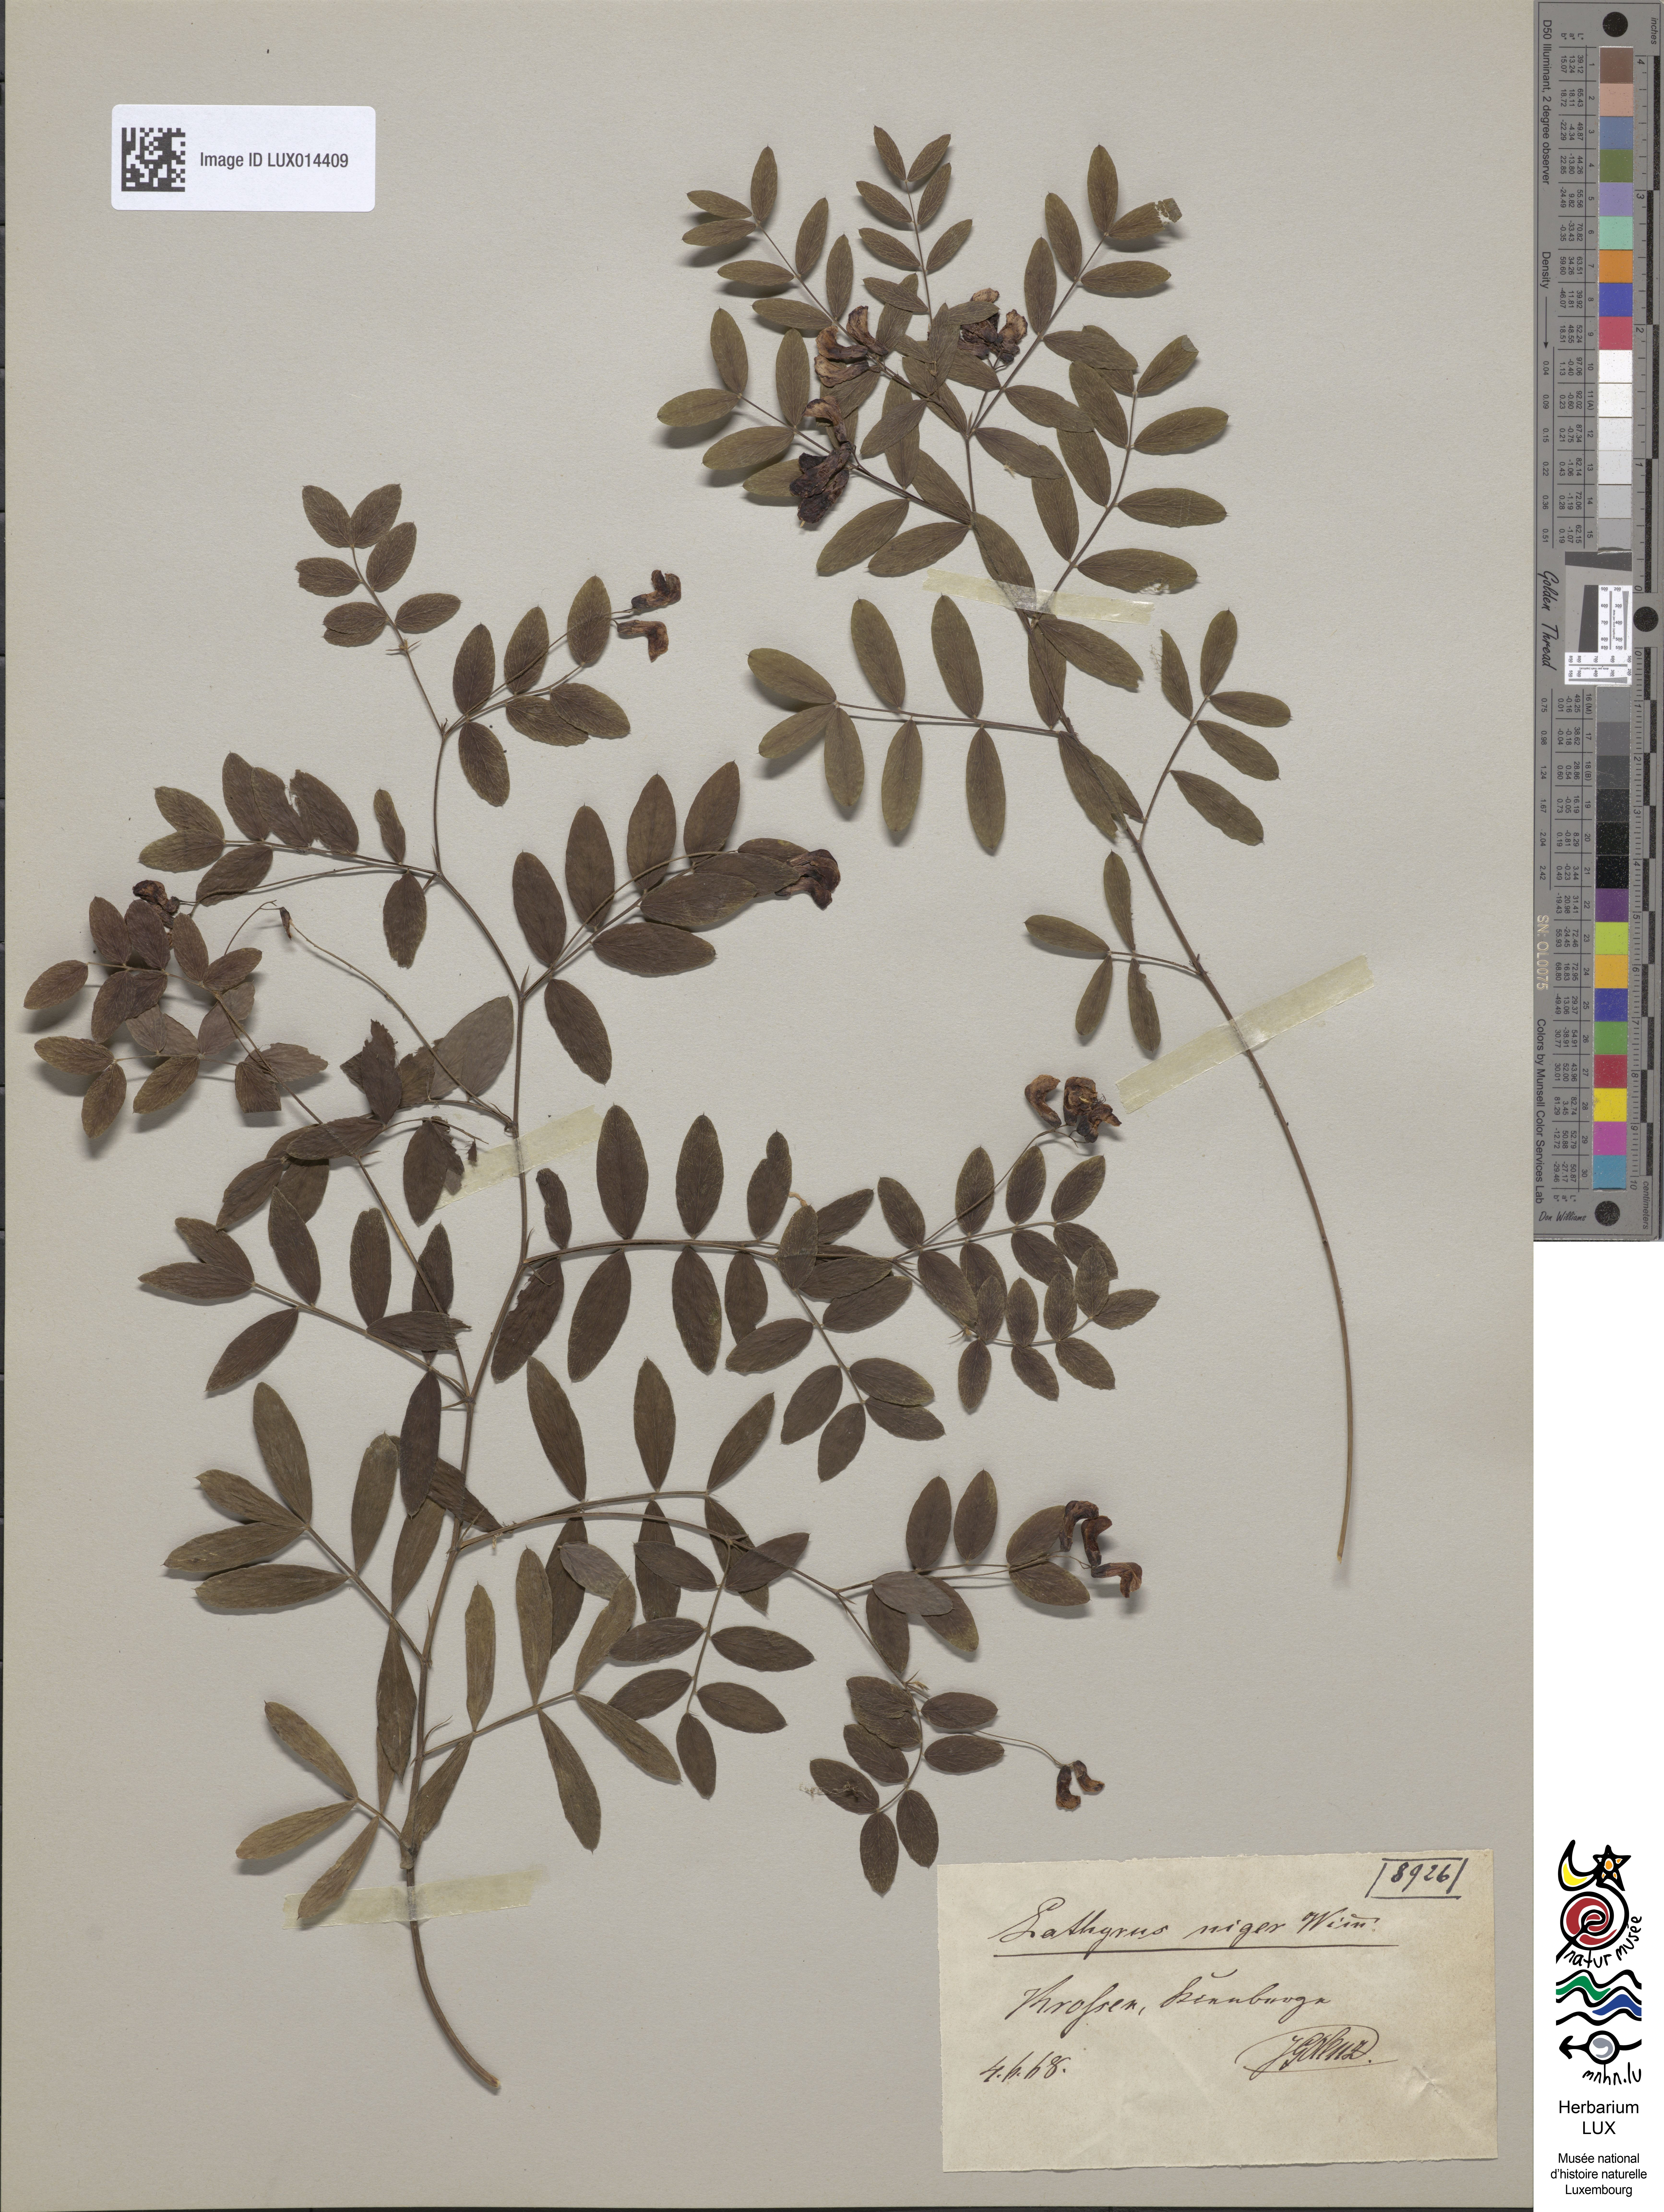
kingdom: Plantae
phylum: Tracheophyta
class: Magnoliopsida
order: Fabales
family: Fabaceae
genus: Lathyrus
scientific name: Lathyrus niger
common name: Black pea
